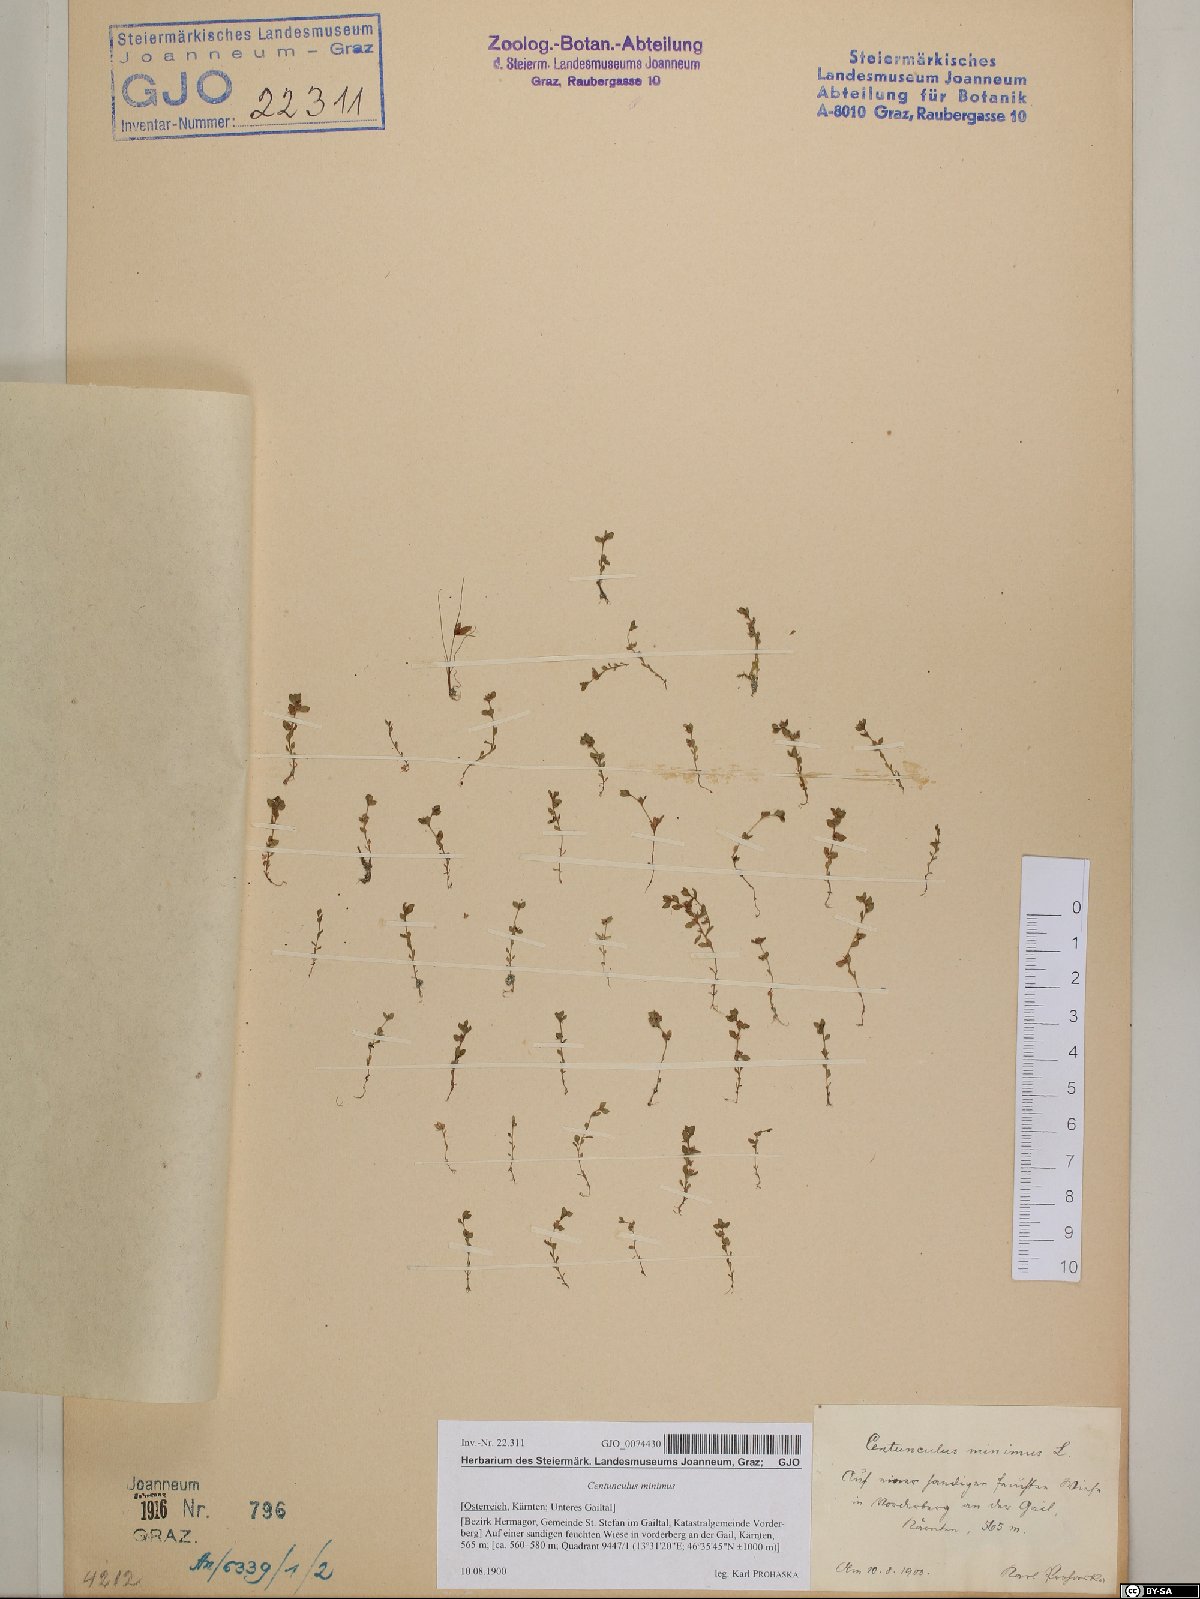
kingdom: Plantae
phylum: Tracheophyta
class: Magnoliopsida
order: Ericales
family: Primulaceae
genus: Lysimachia
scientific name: Lysimachia minima
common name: Chaffweed
